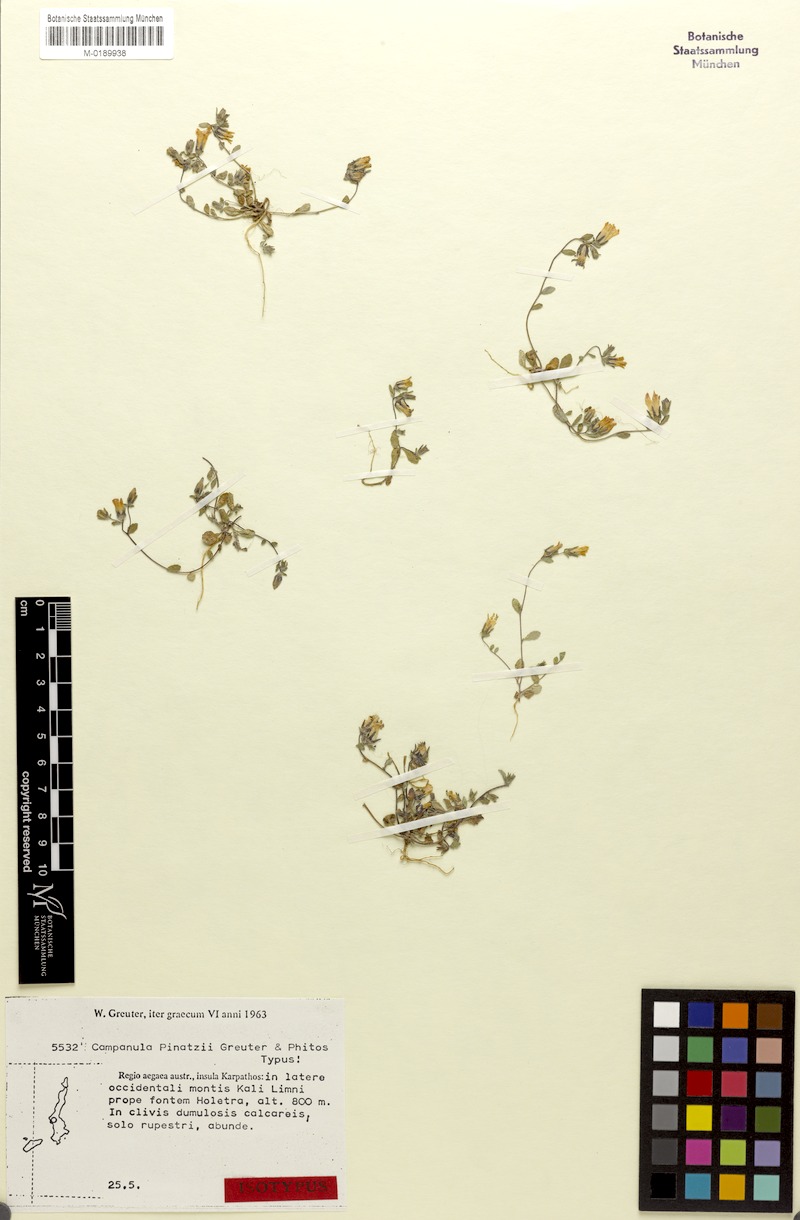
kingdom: Plantae
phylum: Tracheophyta
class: Magnoliopsida
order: Asterales
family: Campanulaceae
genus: Campanula
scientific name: Campanula pinatzii
